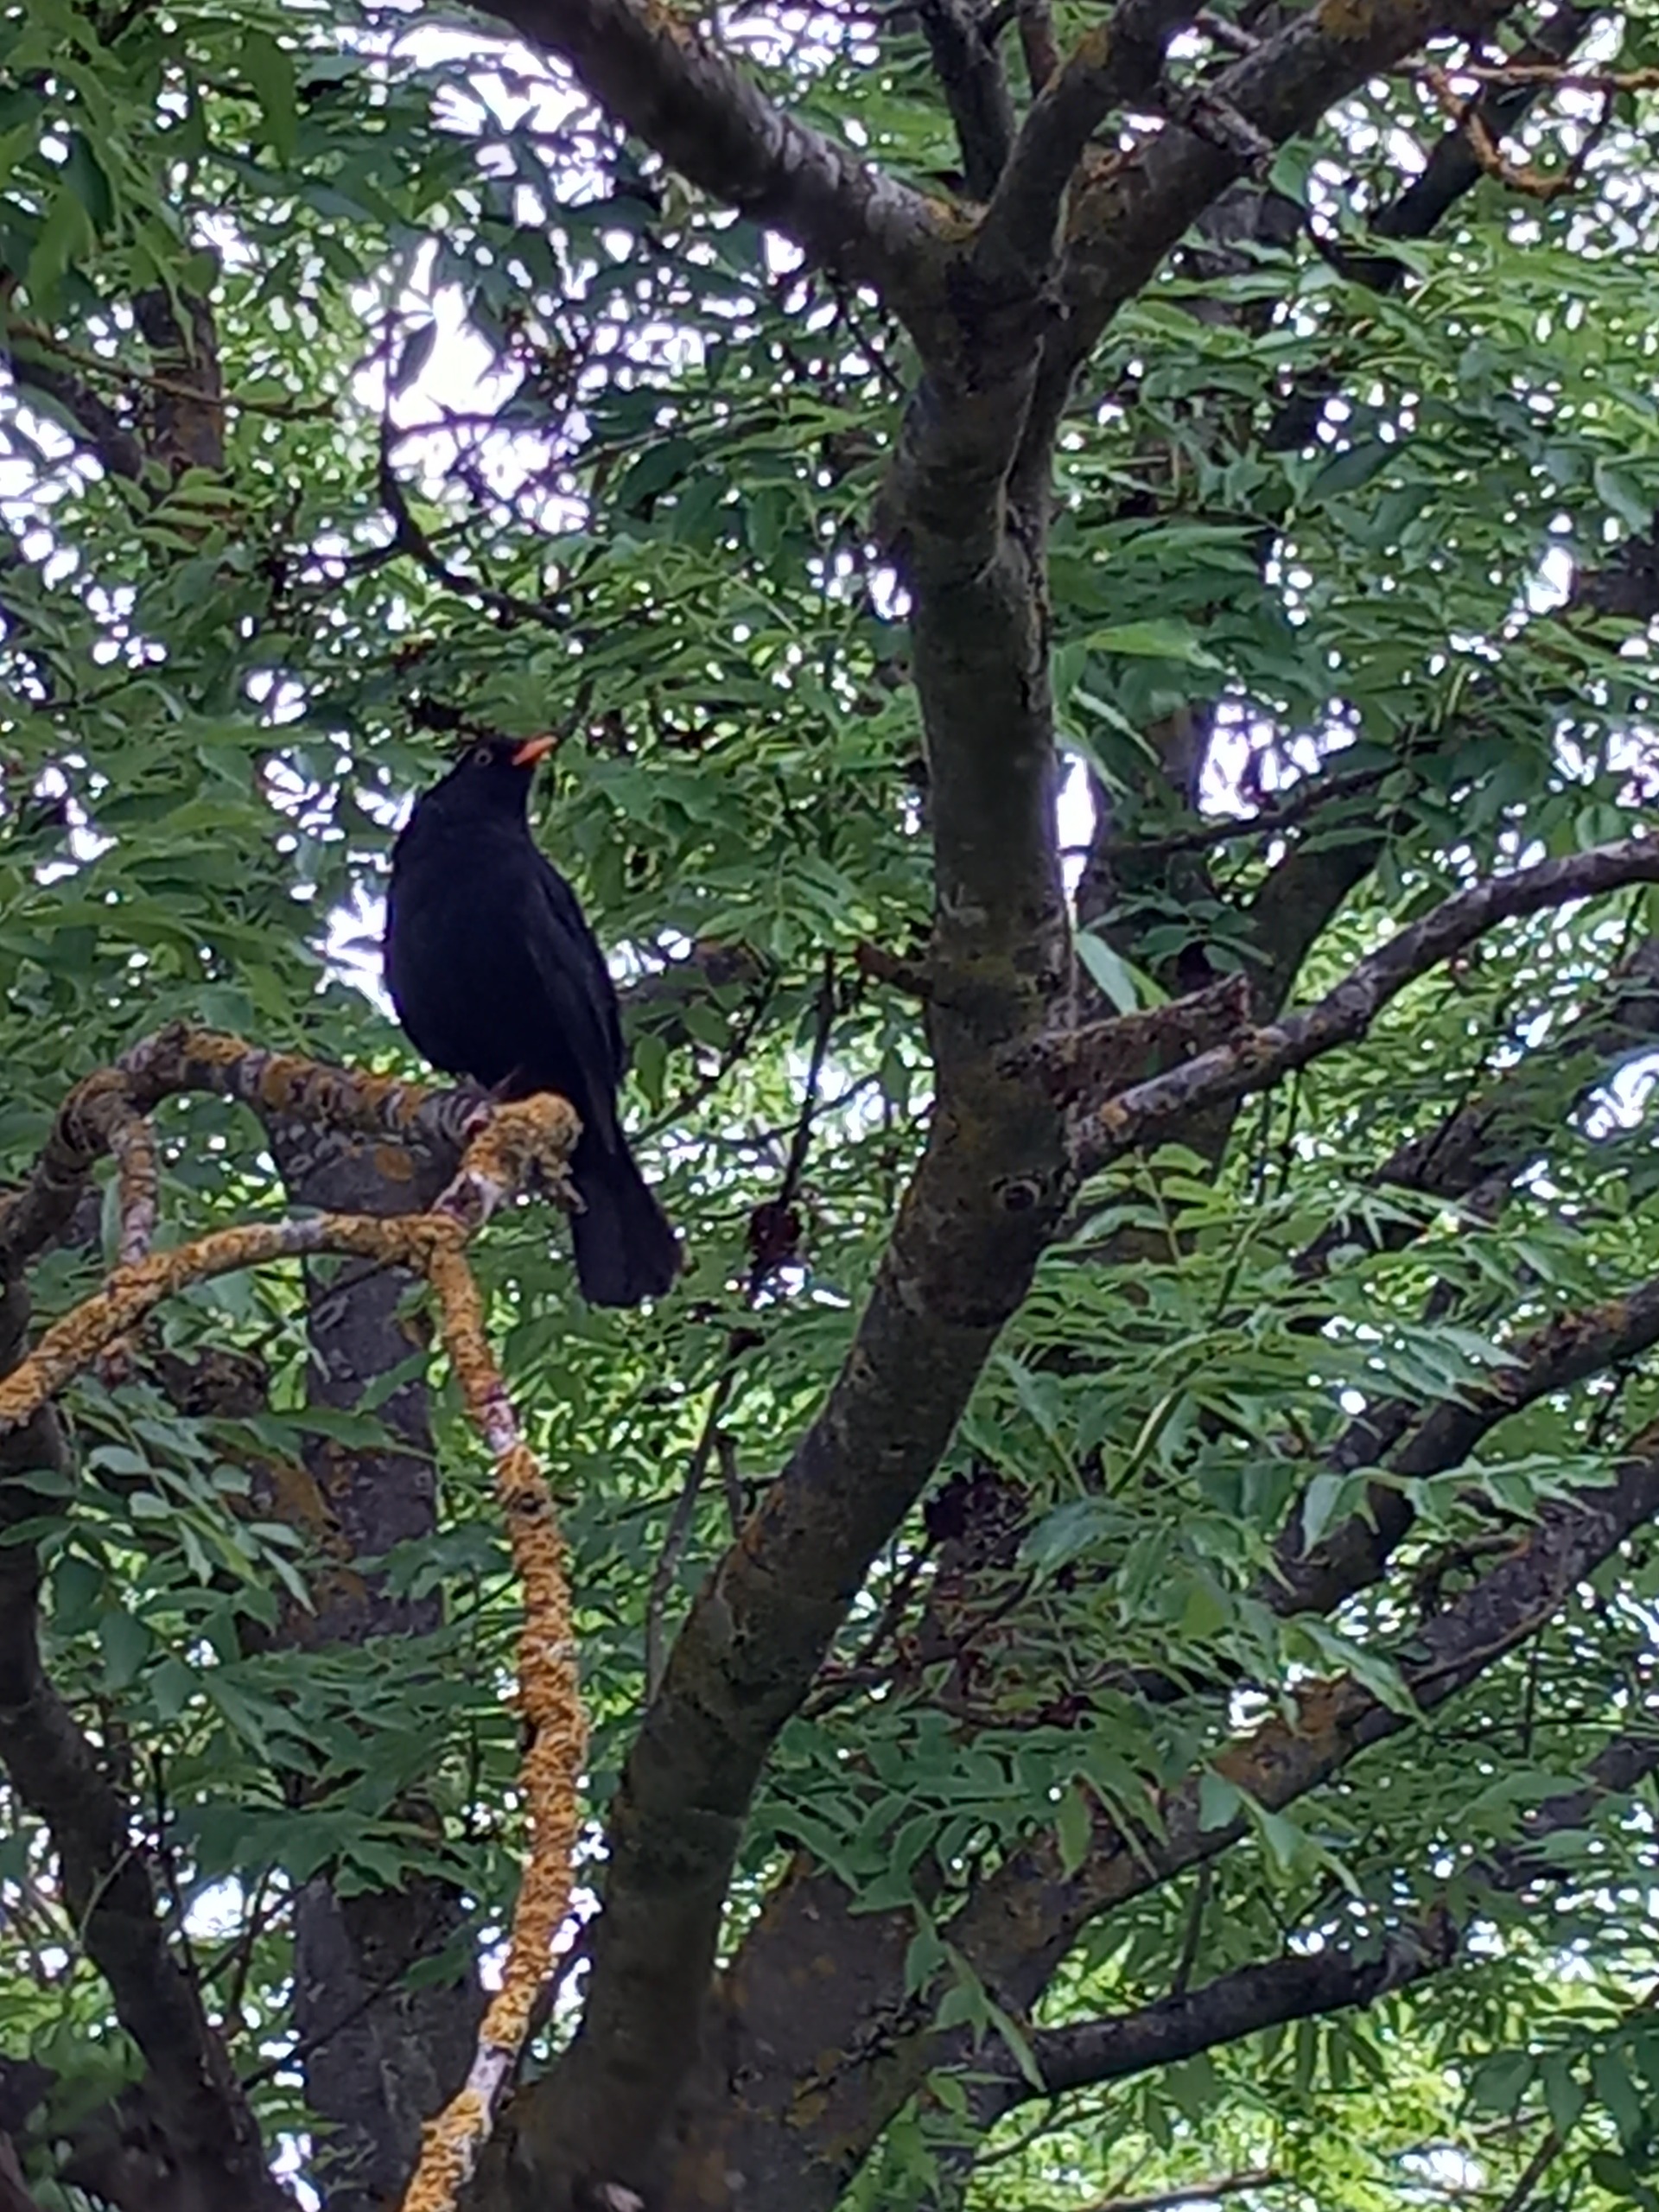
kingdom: Animalia
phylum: Chordata
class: Aves
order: Passeriformes
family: Turdidae
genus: Turdus
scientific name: Turdus merula
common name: Solsort
